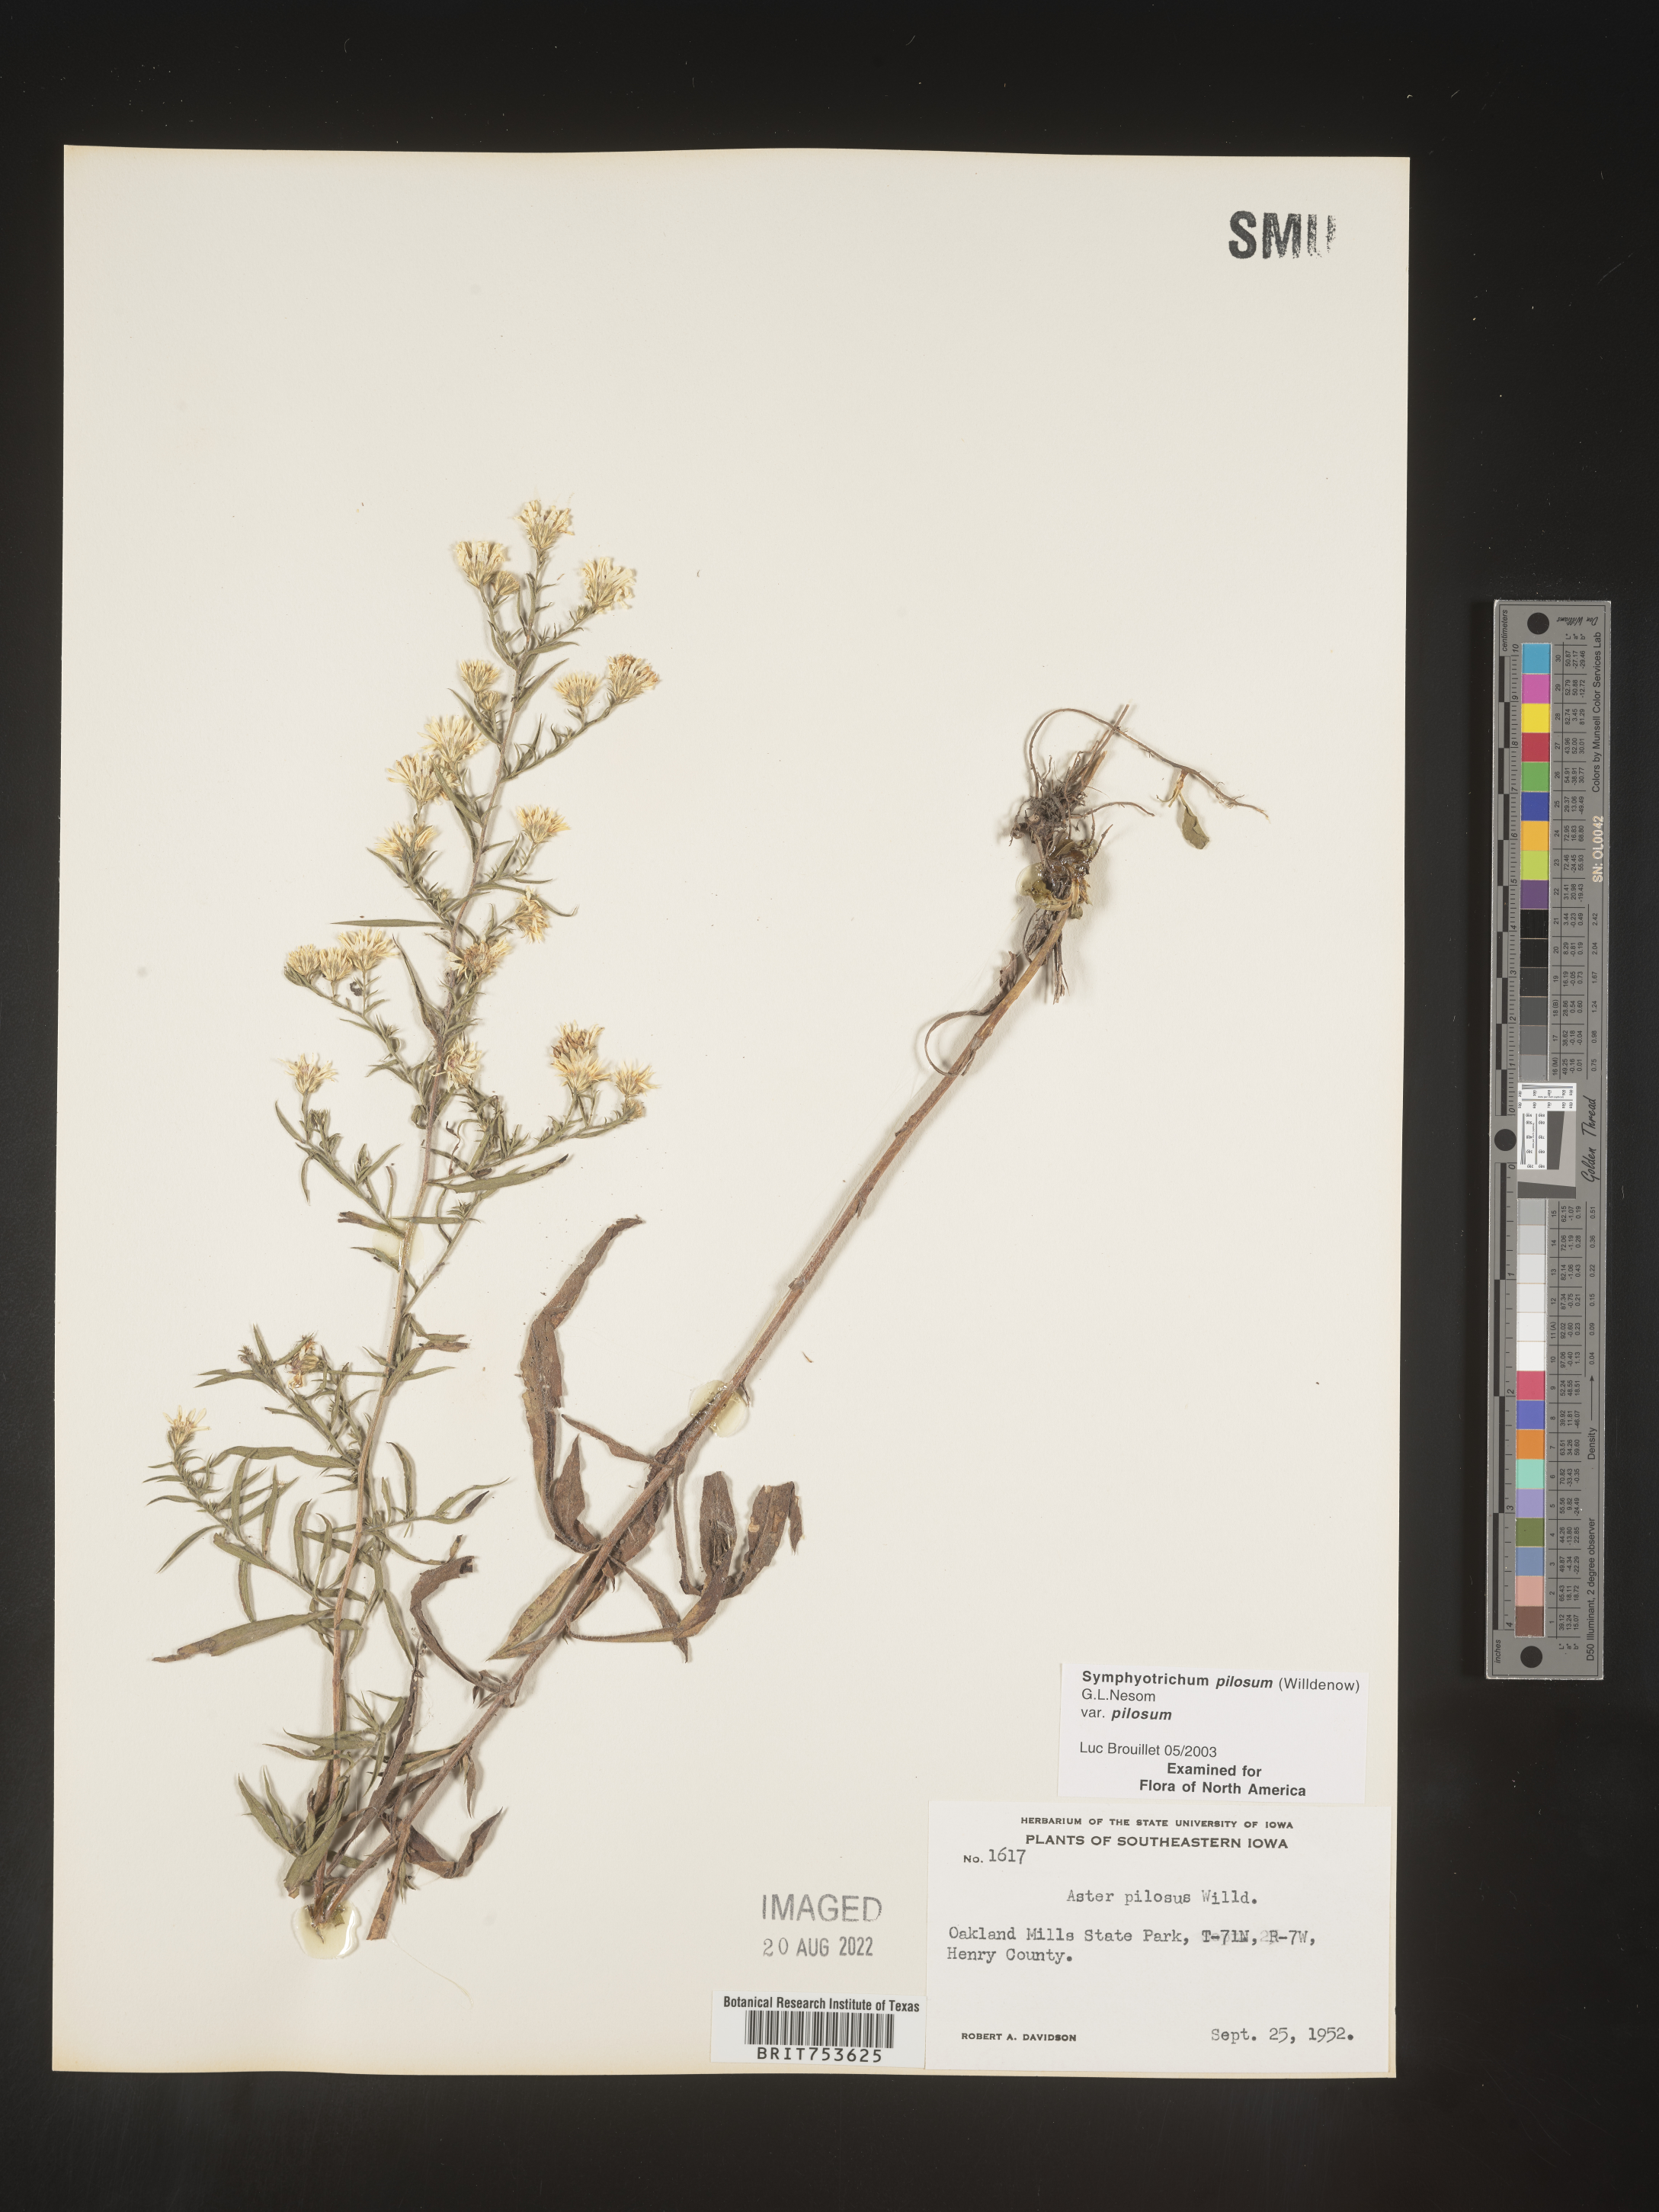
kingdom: Plantae
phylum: Tracheophyta
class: Magnoliopsida
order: Asterales
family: Asteraceae
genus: Symphyotrichum
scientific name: Symphyotrichum pilosum
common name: Awl aster
